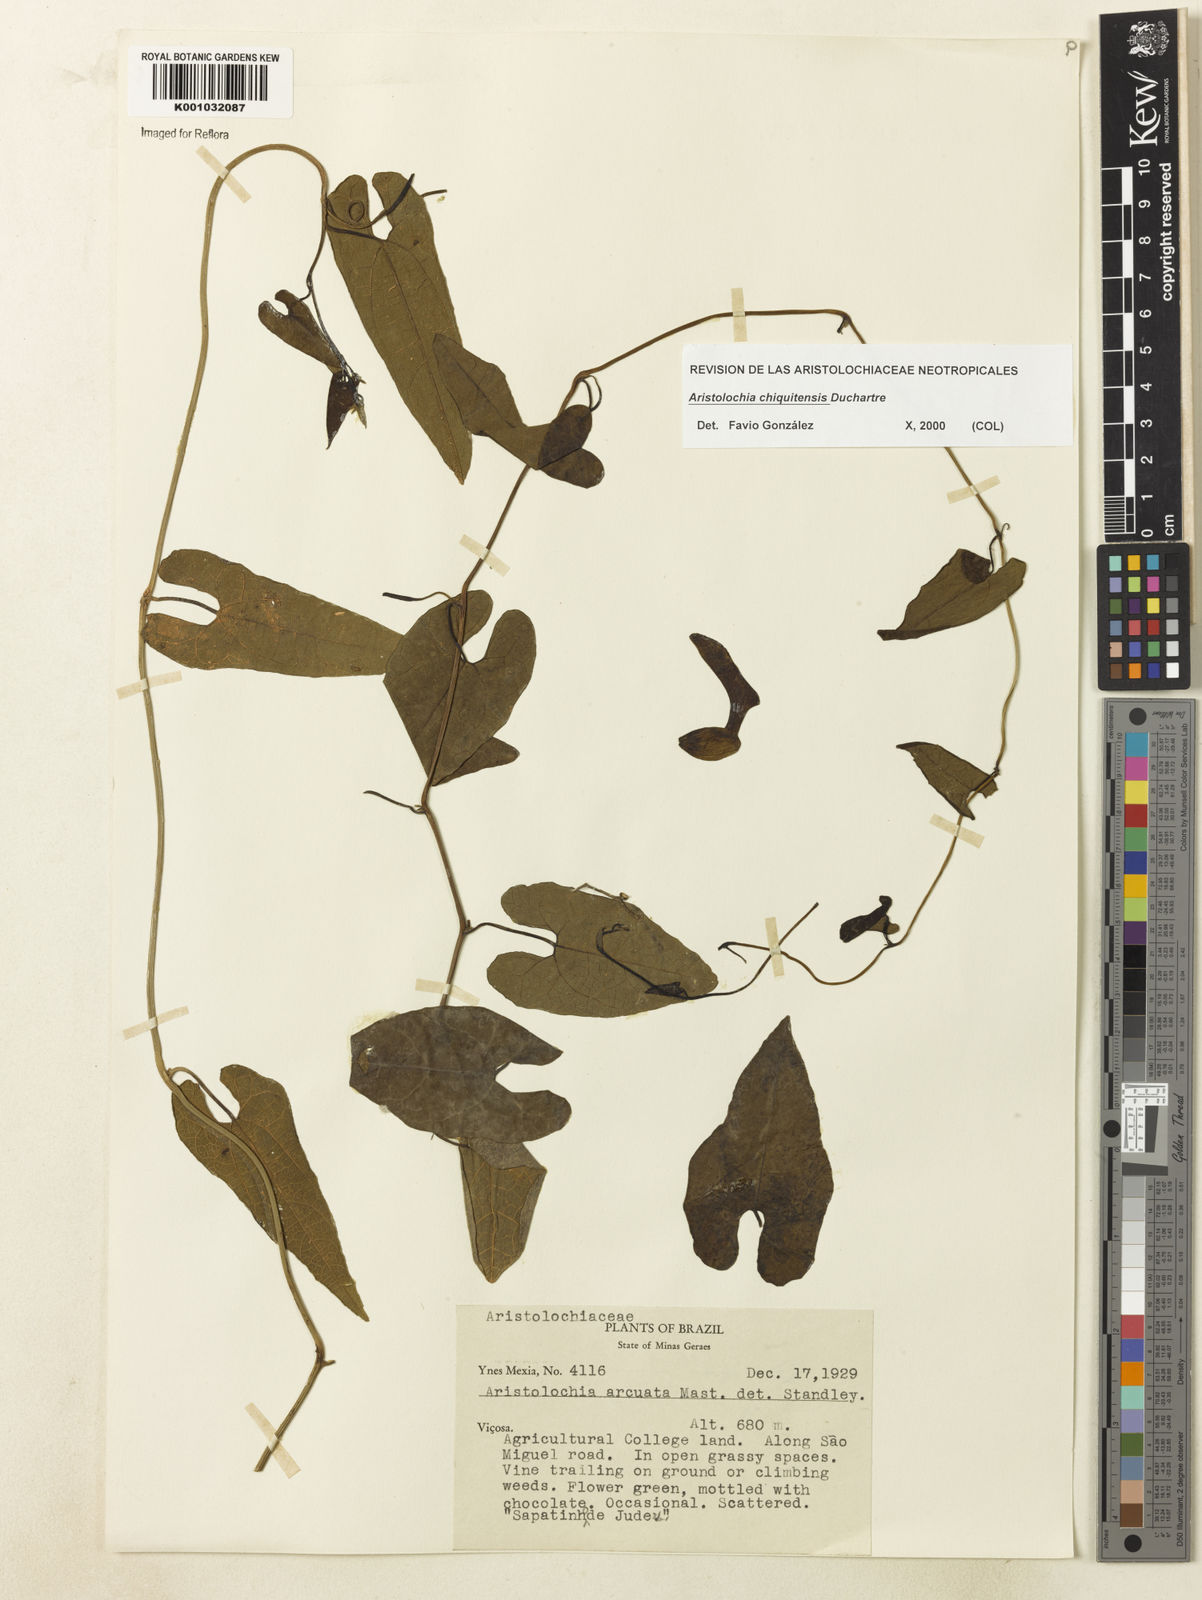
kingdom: Plantae
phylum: Tracheophyta
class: Magnoliopsida
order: Piperales
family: Aristolochiaceae
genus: Aristolochia
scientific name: Aristolochia chiquitensis
